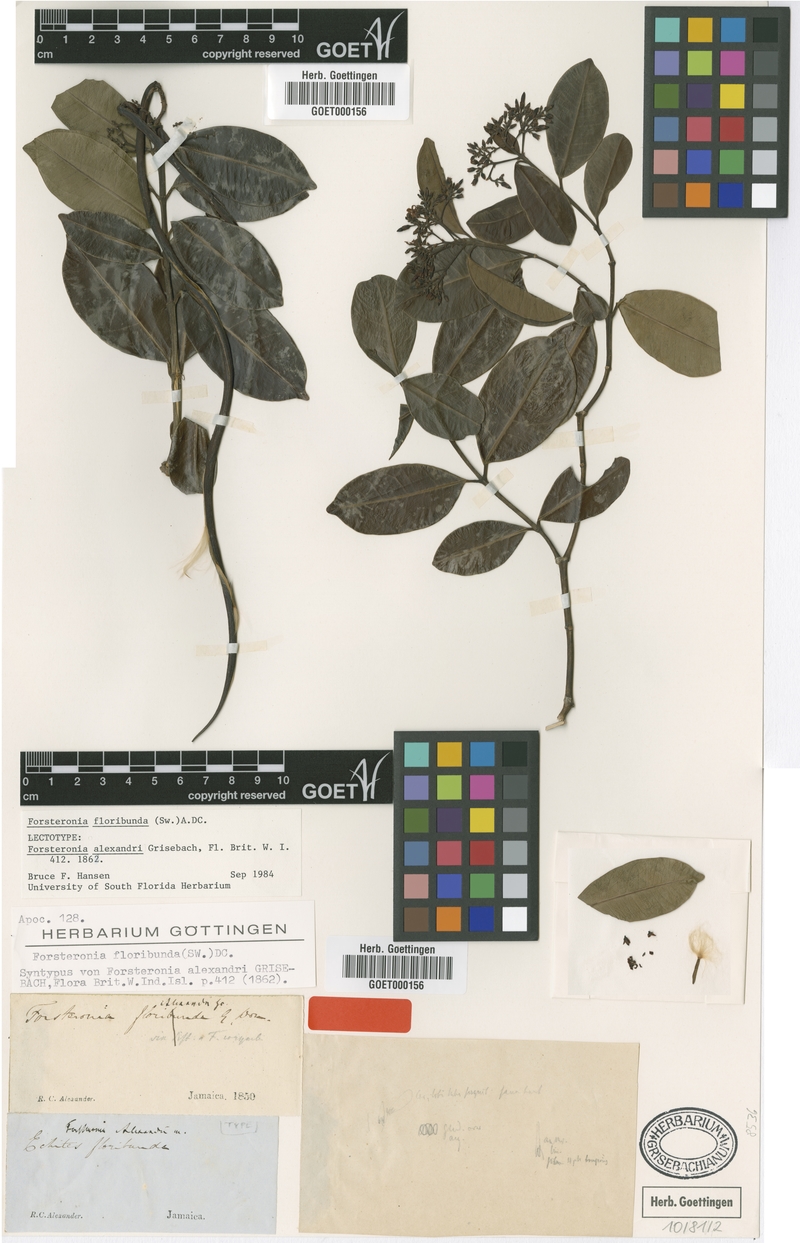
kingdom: Plantae
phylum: Tracheophyta
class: Magnoliopsida
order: Gentianales
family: Apocynaceae
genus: Pinochia
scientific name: Pinochia floribunda
